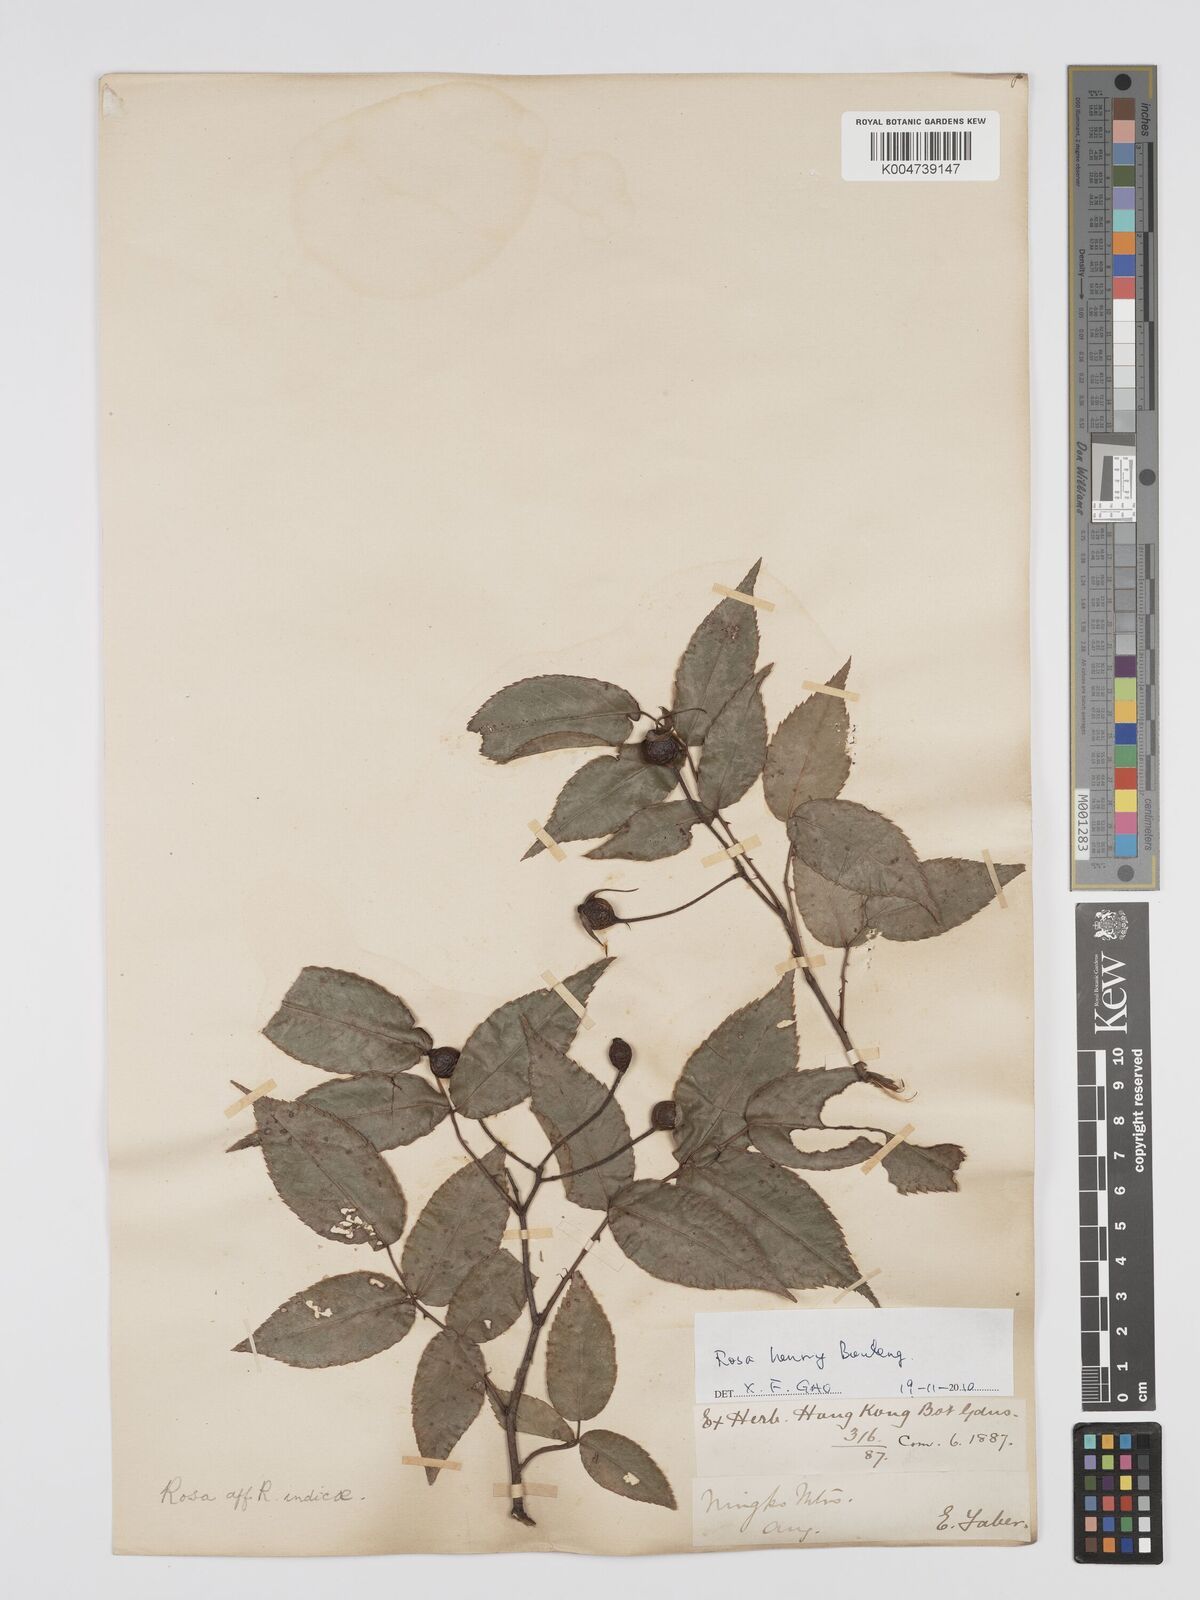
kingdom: Plantae
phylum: Tracheophyta
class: Magnoliopsida
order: Rosales
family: Rosaceae
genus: Rosa
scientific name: Rosa henryi
